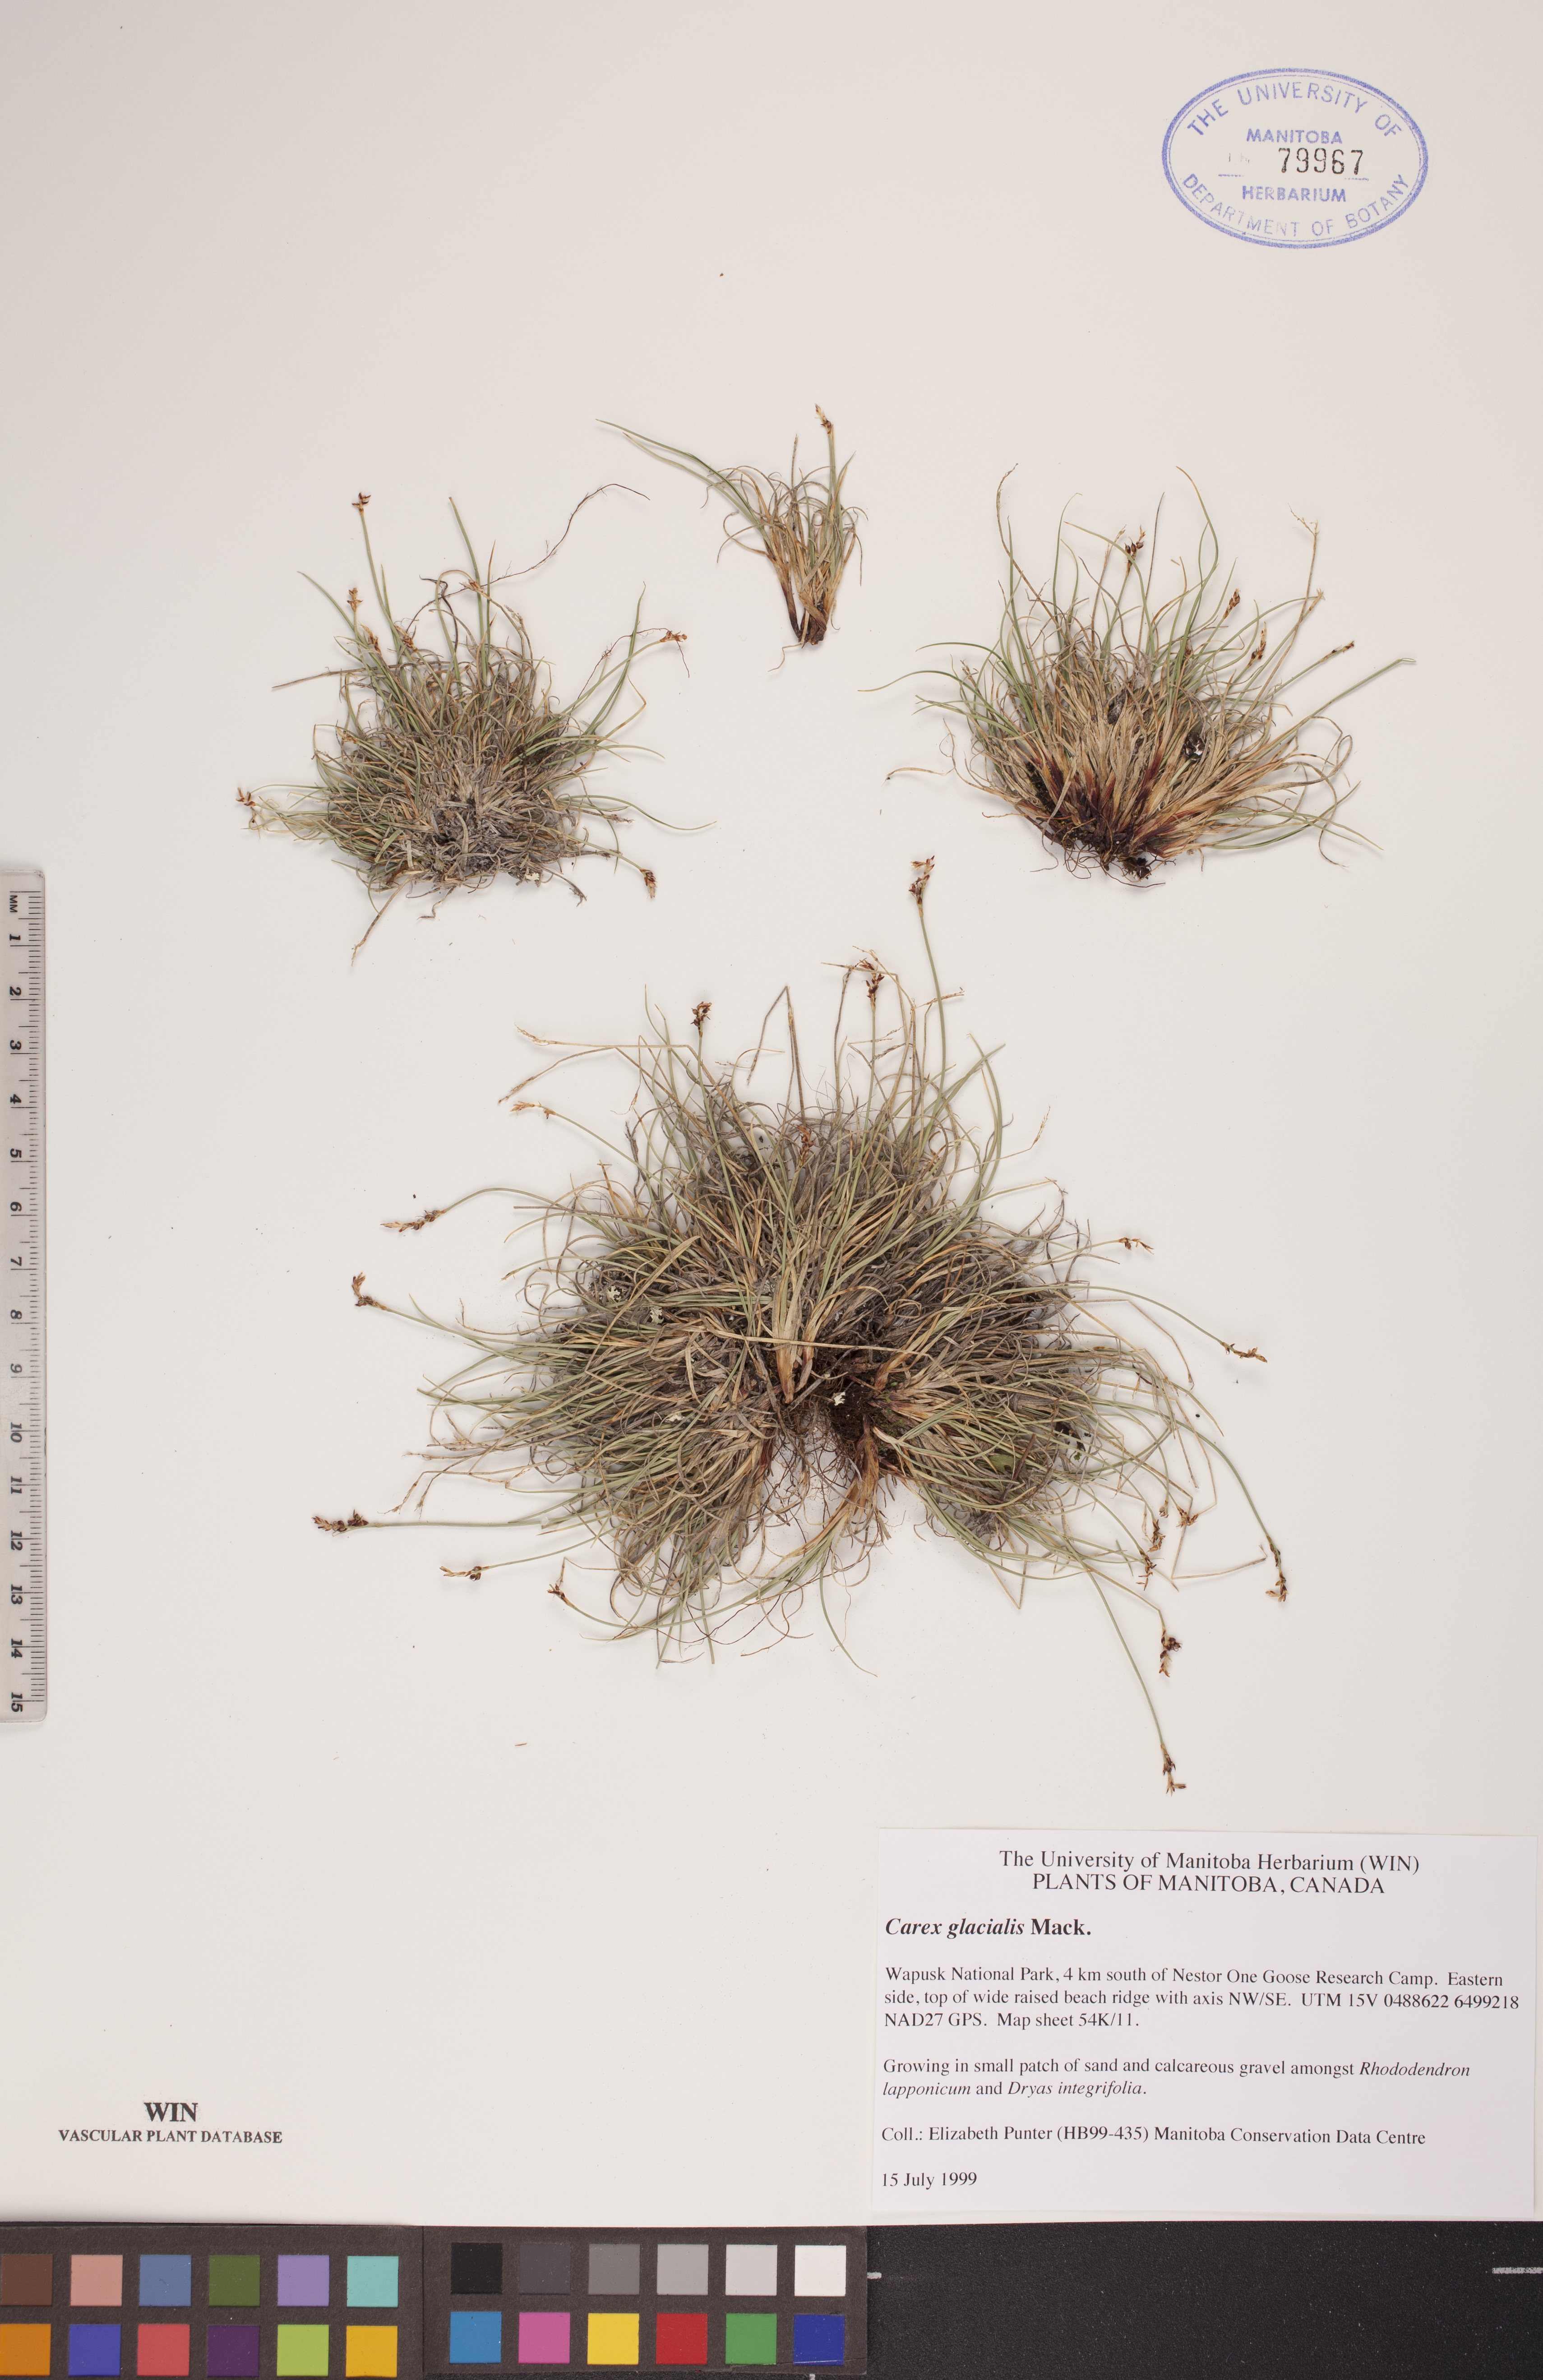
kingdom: Plantae
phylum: Tracheophyta
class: Liliopsida
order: Poales
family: Cyperaceae
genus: Carex
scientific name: Carex glacialis
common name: Newfoundland sedge
